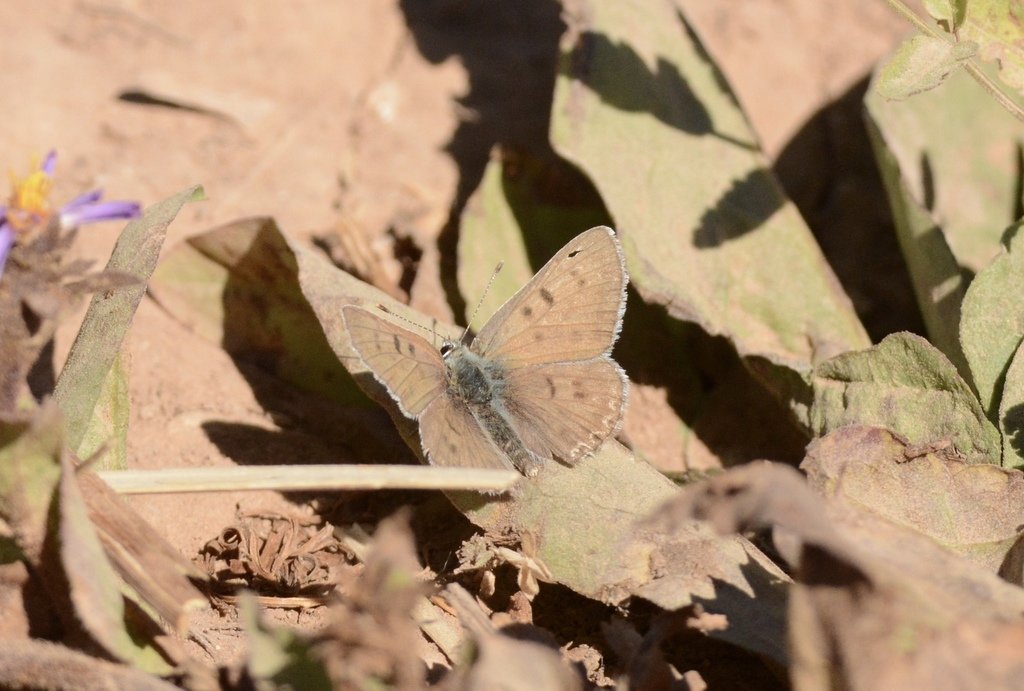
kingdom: Animalia
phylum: Arthropoda
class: Insecta
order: Lepidoptera
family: Lycaenidae
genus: Lycaena
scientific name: Lycaena heteronea
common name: Blue Copper
